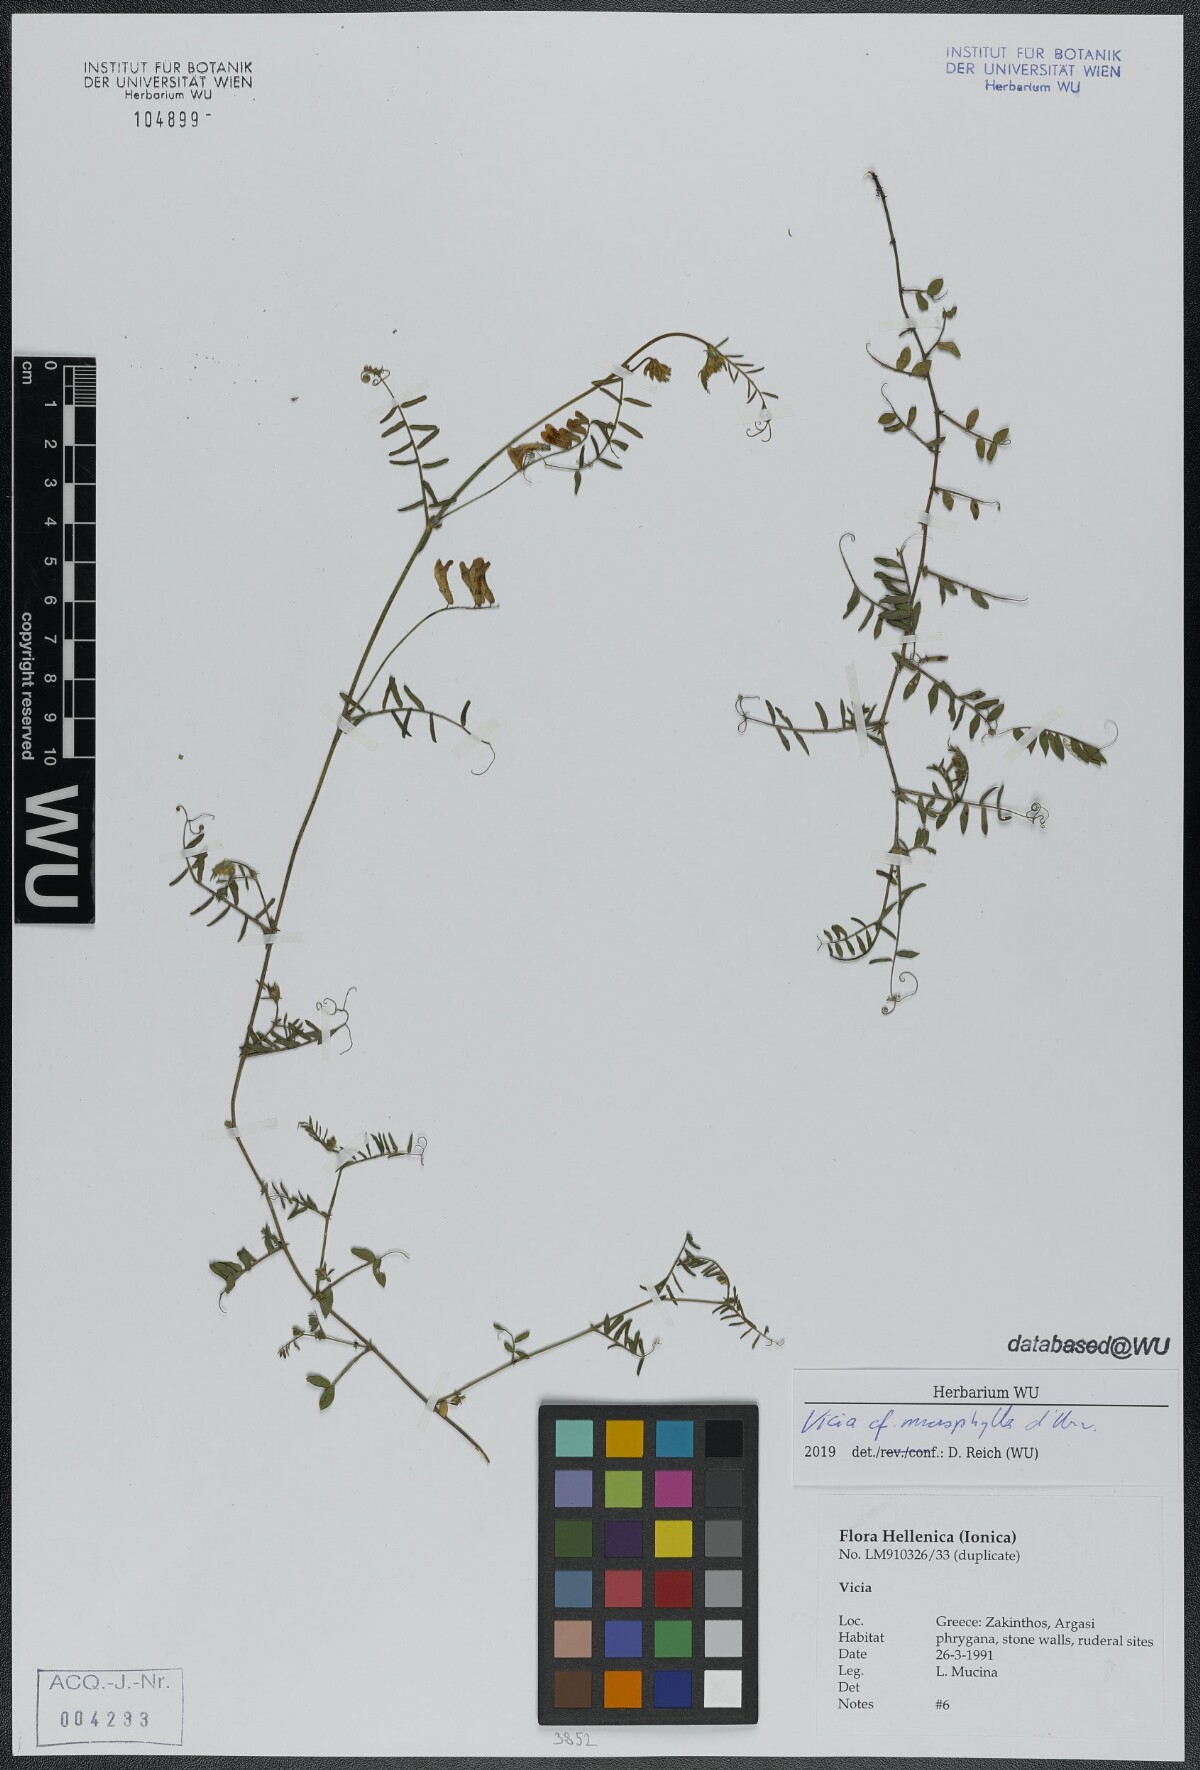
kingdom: Plantae
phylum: Tracheophyta
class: Magnoliopsida
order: Fabales
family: Fabaceae
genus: Vicia
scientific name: Vicia villosa
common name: Fodder vetch
